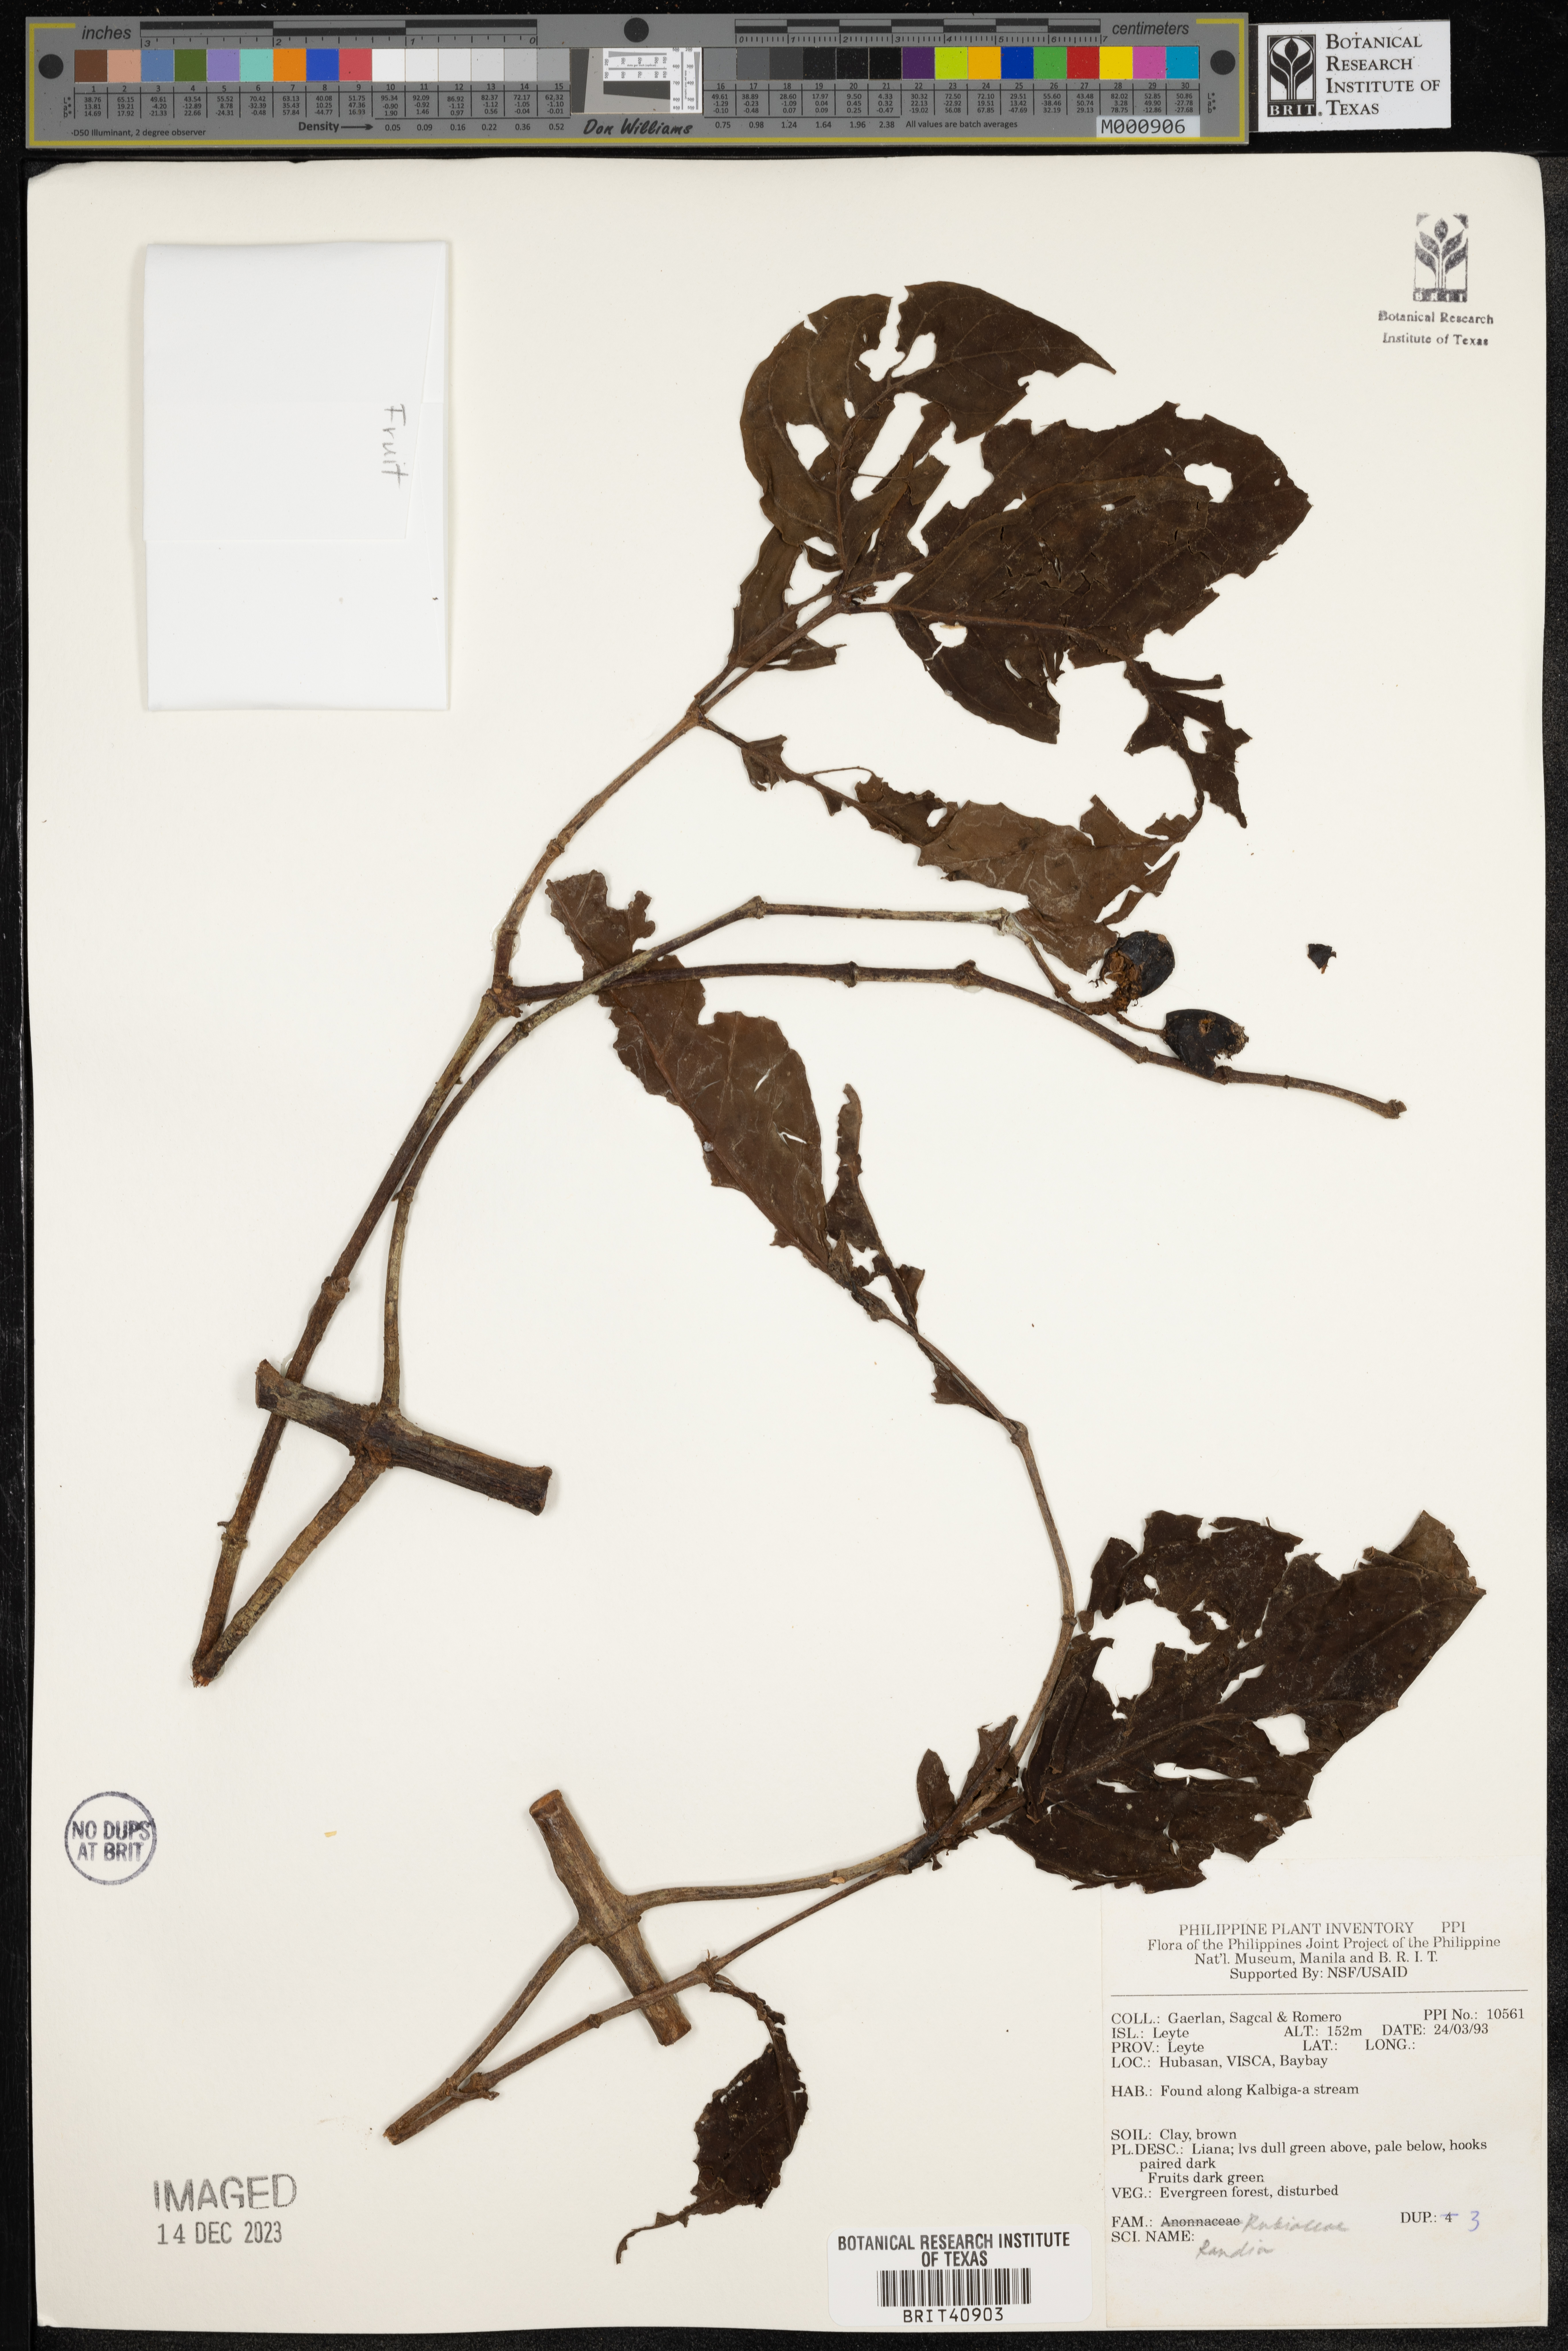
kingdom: Plantae
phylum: Tracheophyta
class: Magnoliopsida
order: Gentianales
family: Rubiaceae
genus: Randia
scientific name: Randia
